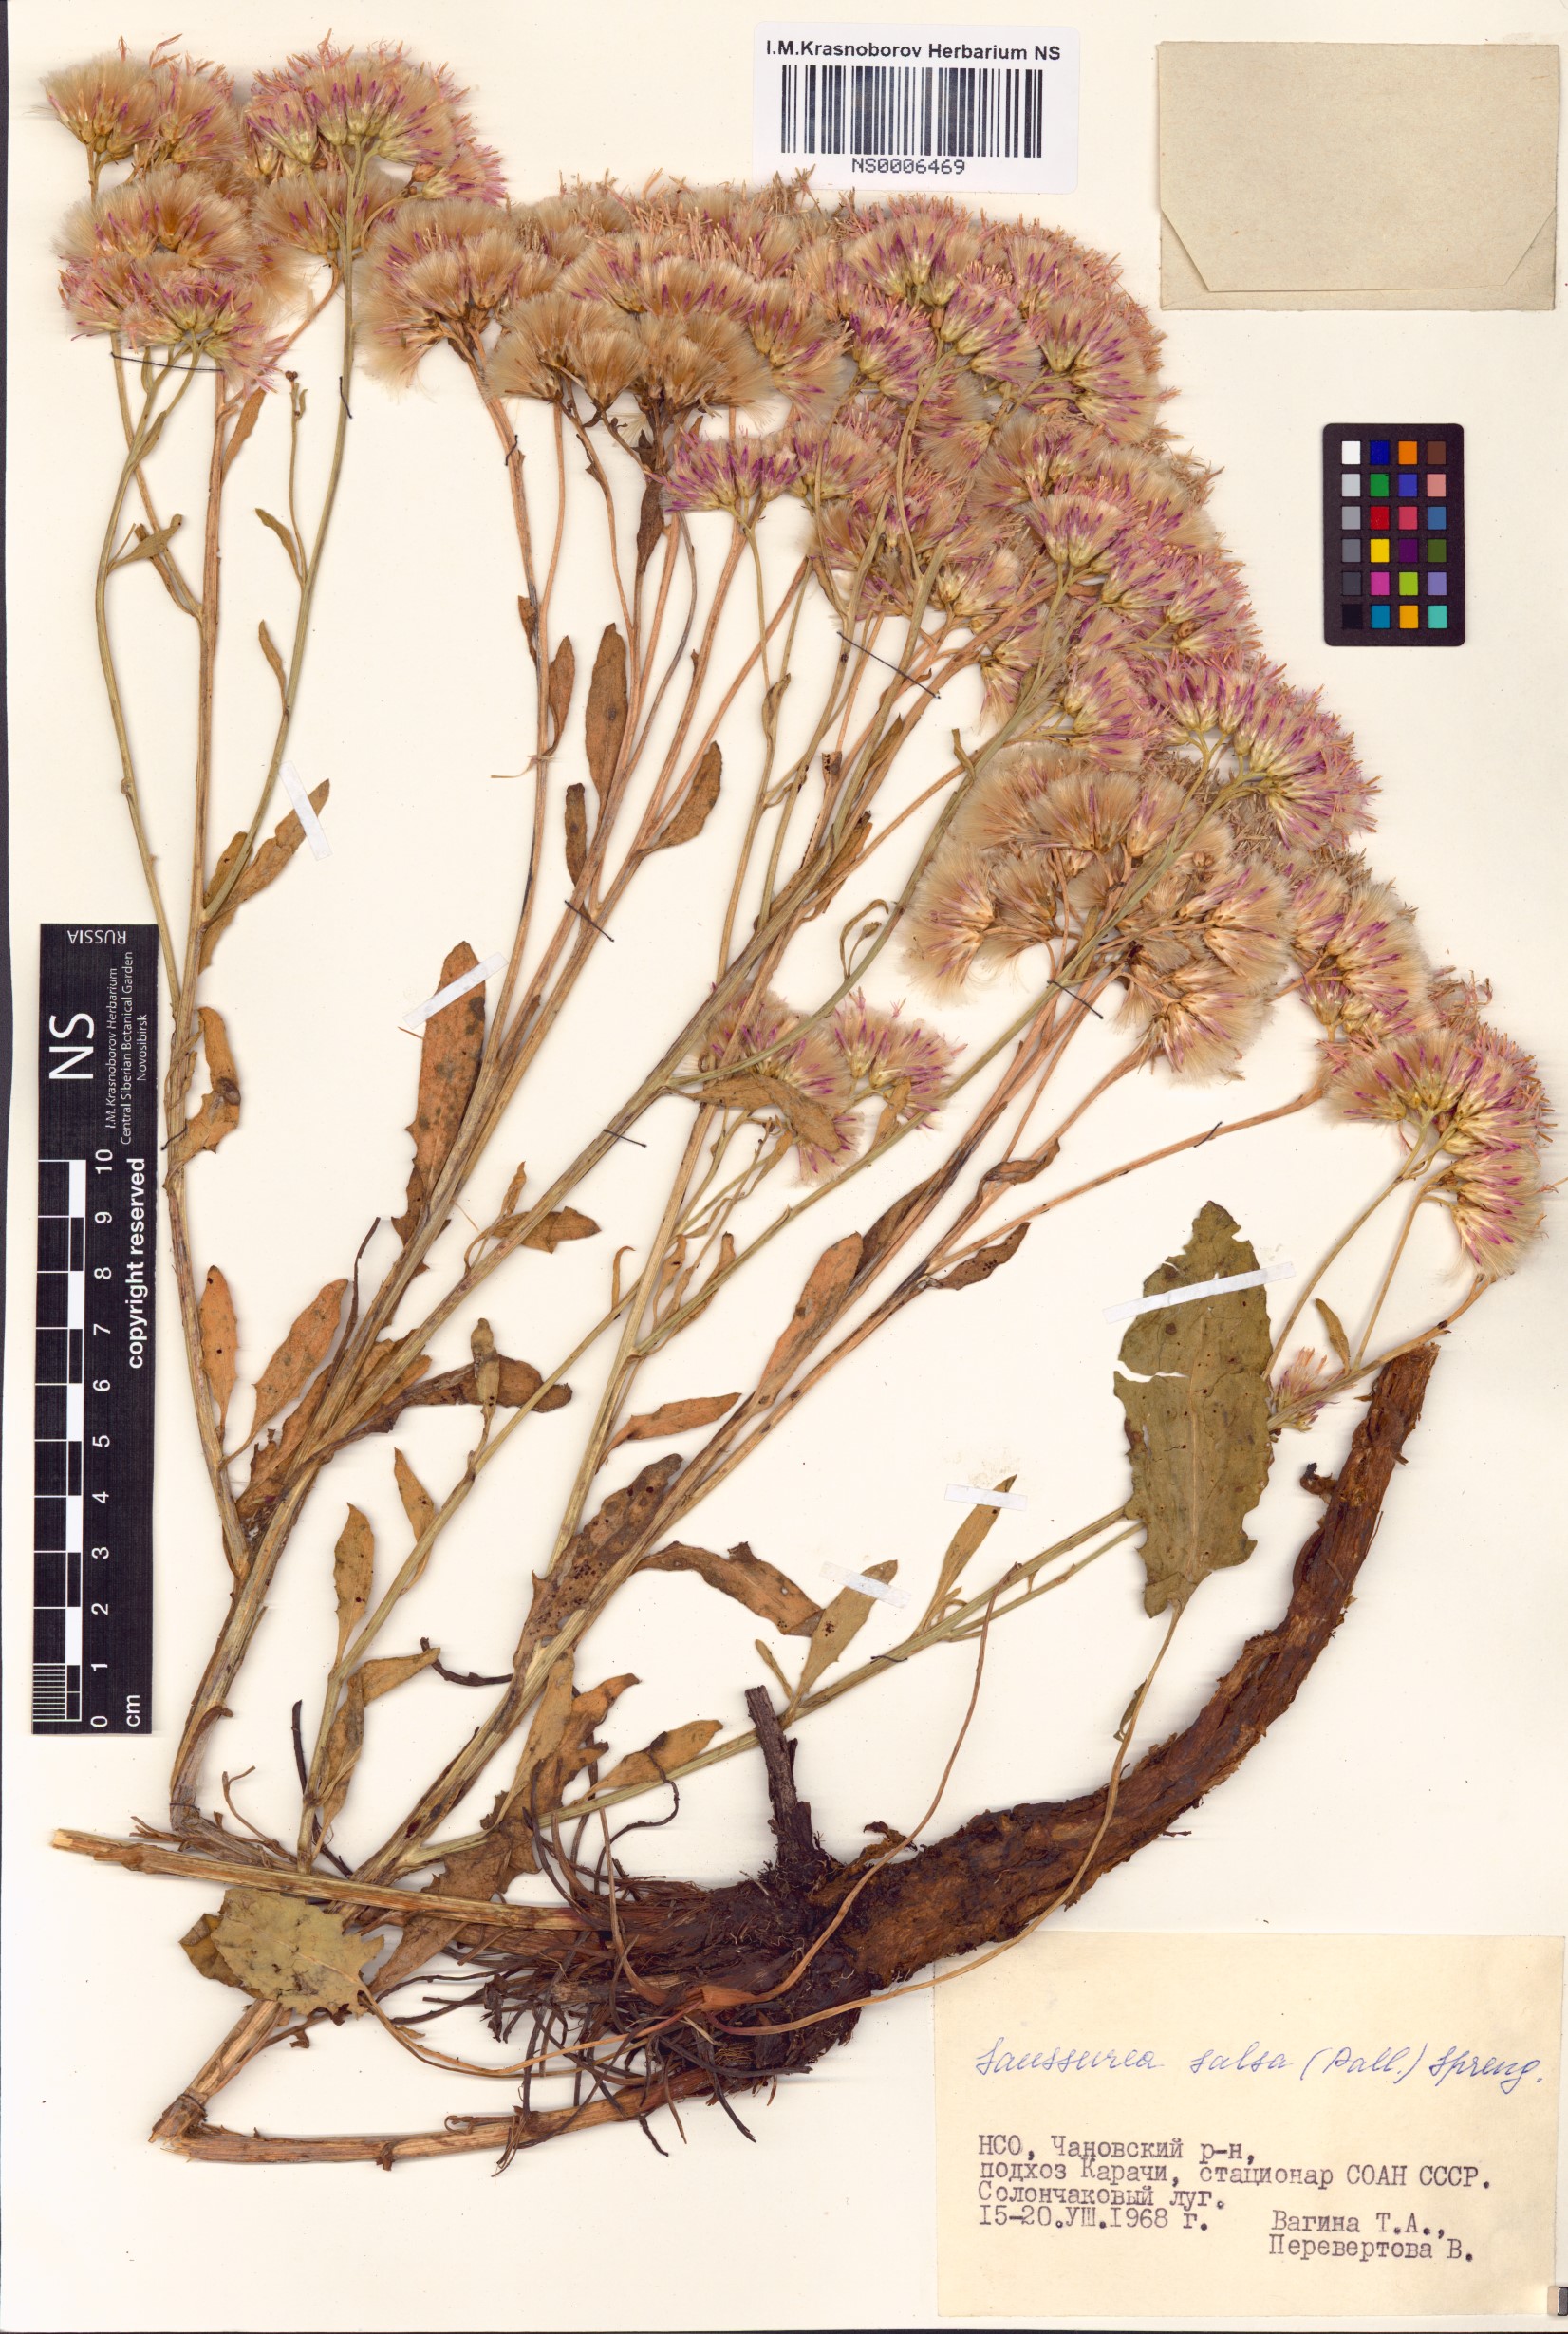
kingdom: Plantae
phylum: Tracheophyta
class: Magnoliopsida
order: Asterales
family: Asteraceae
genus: Saussurea
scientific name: Saussurea salsa
